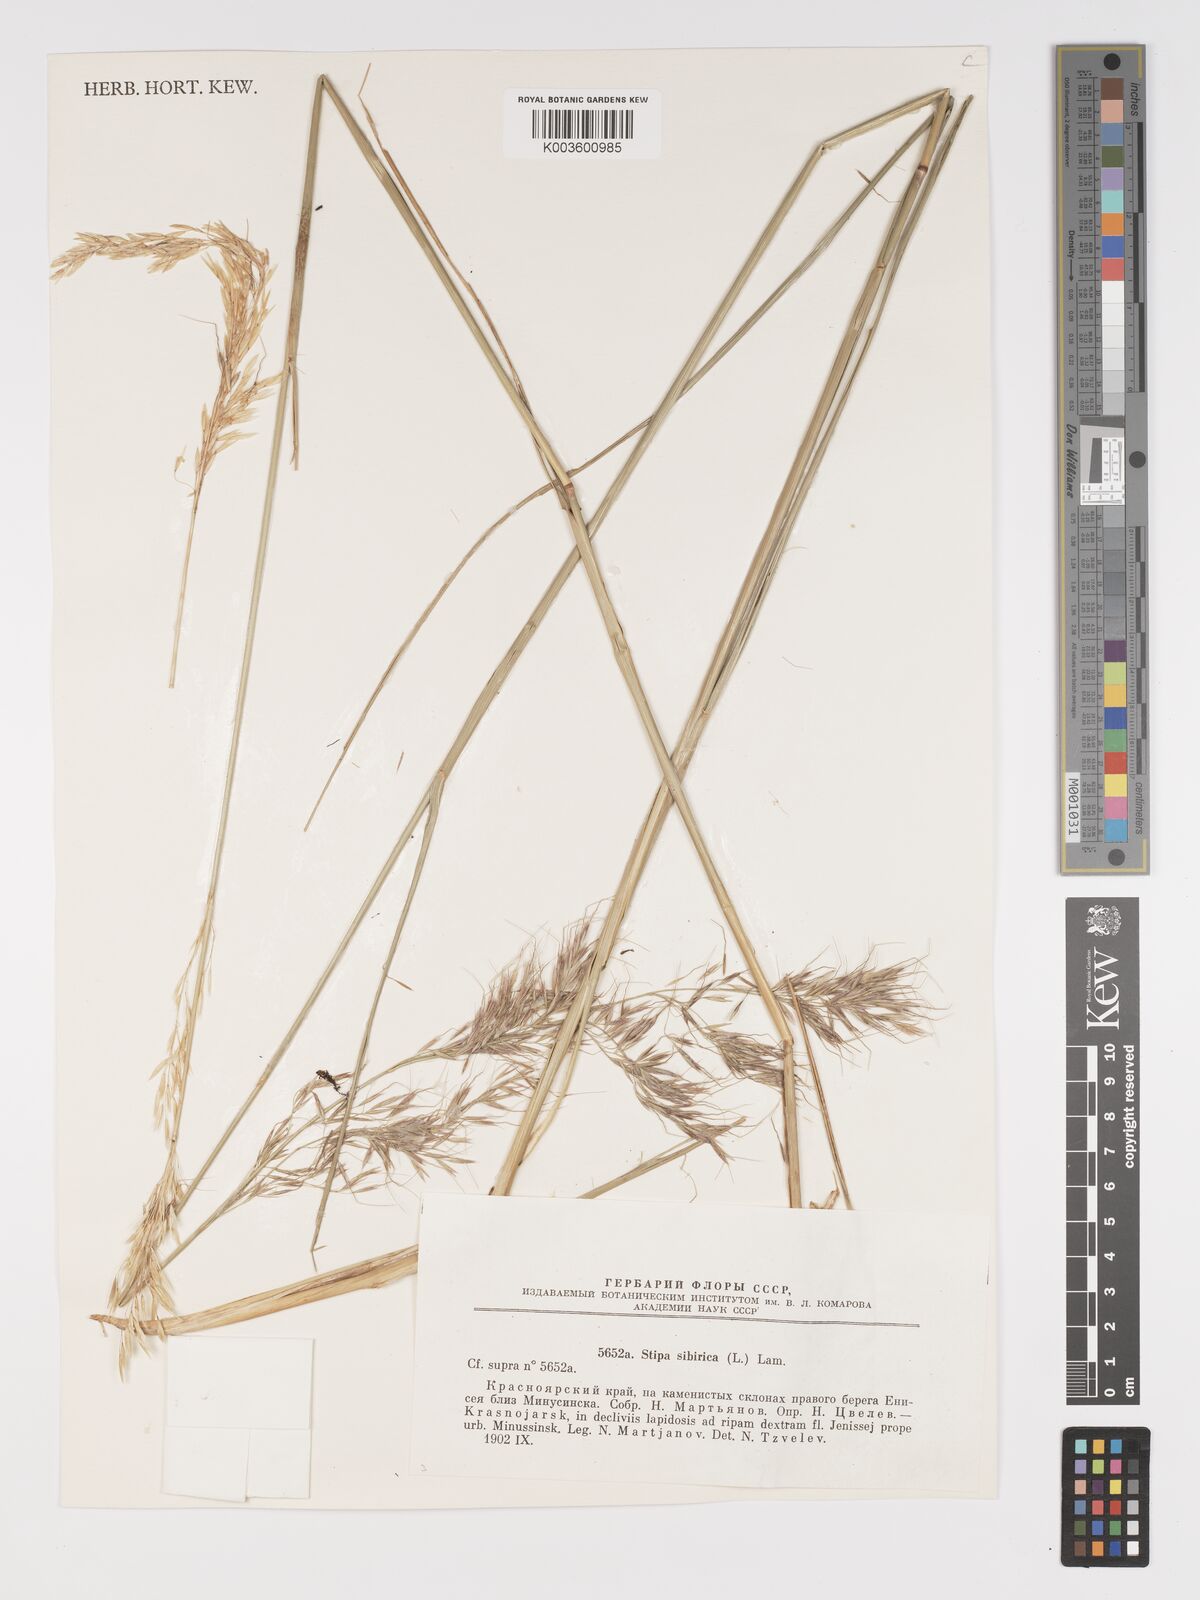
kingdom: Plantae
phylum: Tracheophyta
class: Liliopsida
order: Poales
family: Poaceae
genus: Achnatherum
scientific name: Achnatherum sibiricum
